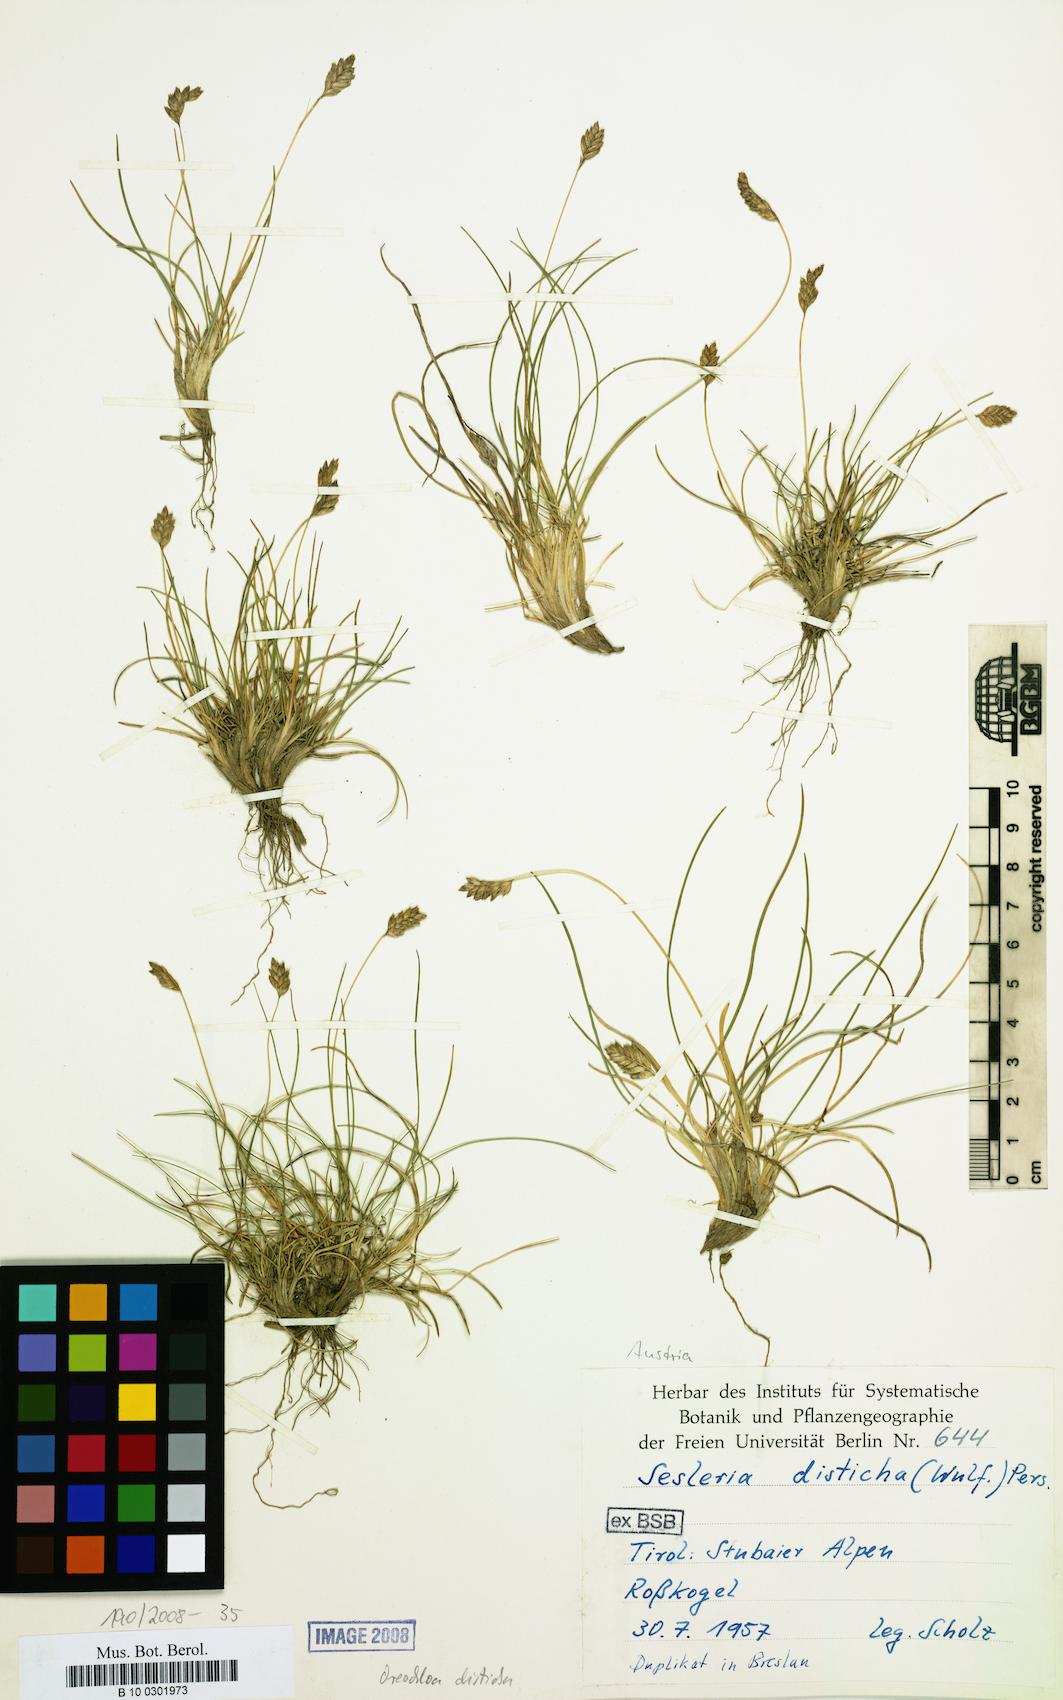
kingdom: Plantae
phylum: Tracheophyta
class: Liliopsida
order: Poales
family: Poaceae
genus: Oreochloa
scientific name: Oreochloa disticha
